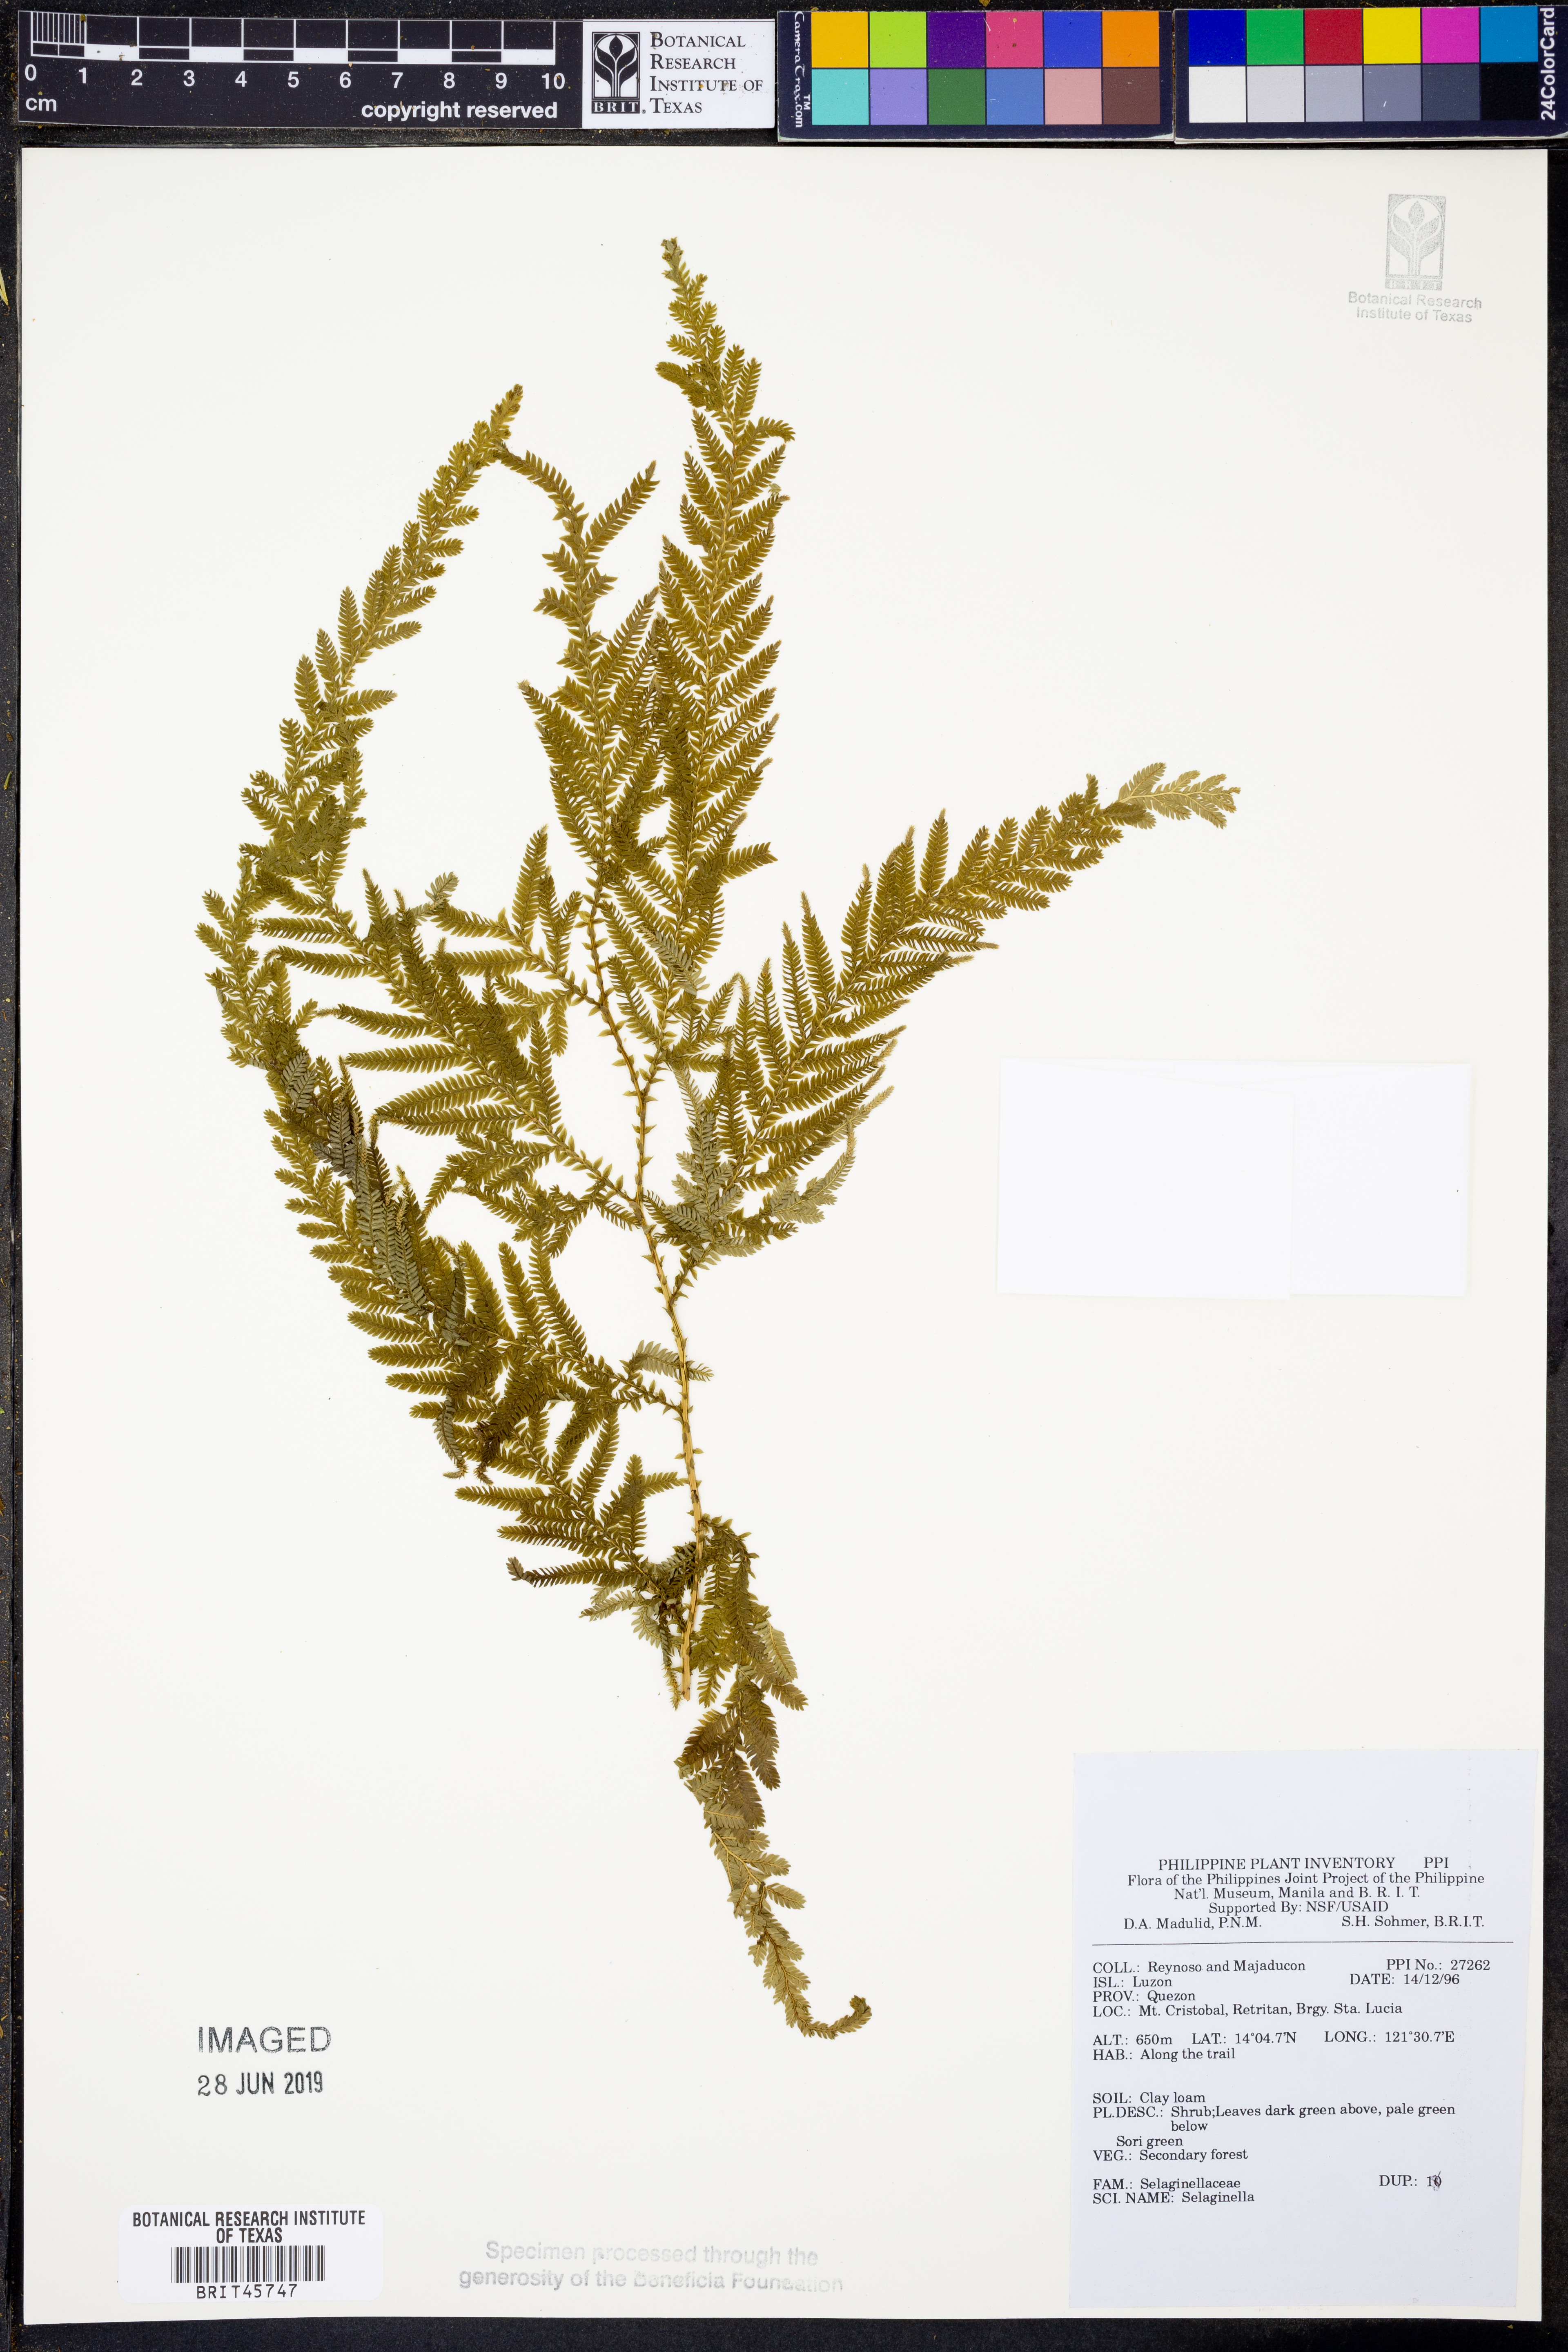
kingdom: Plantae
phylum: Tracheophyta
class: Lycopodiopsida
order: Selaginellales
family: Selaginellaceae
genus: Selaginella
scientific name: Selaginella
